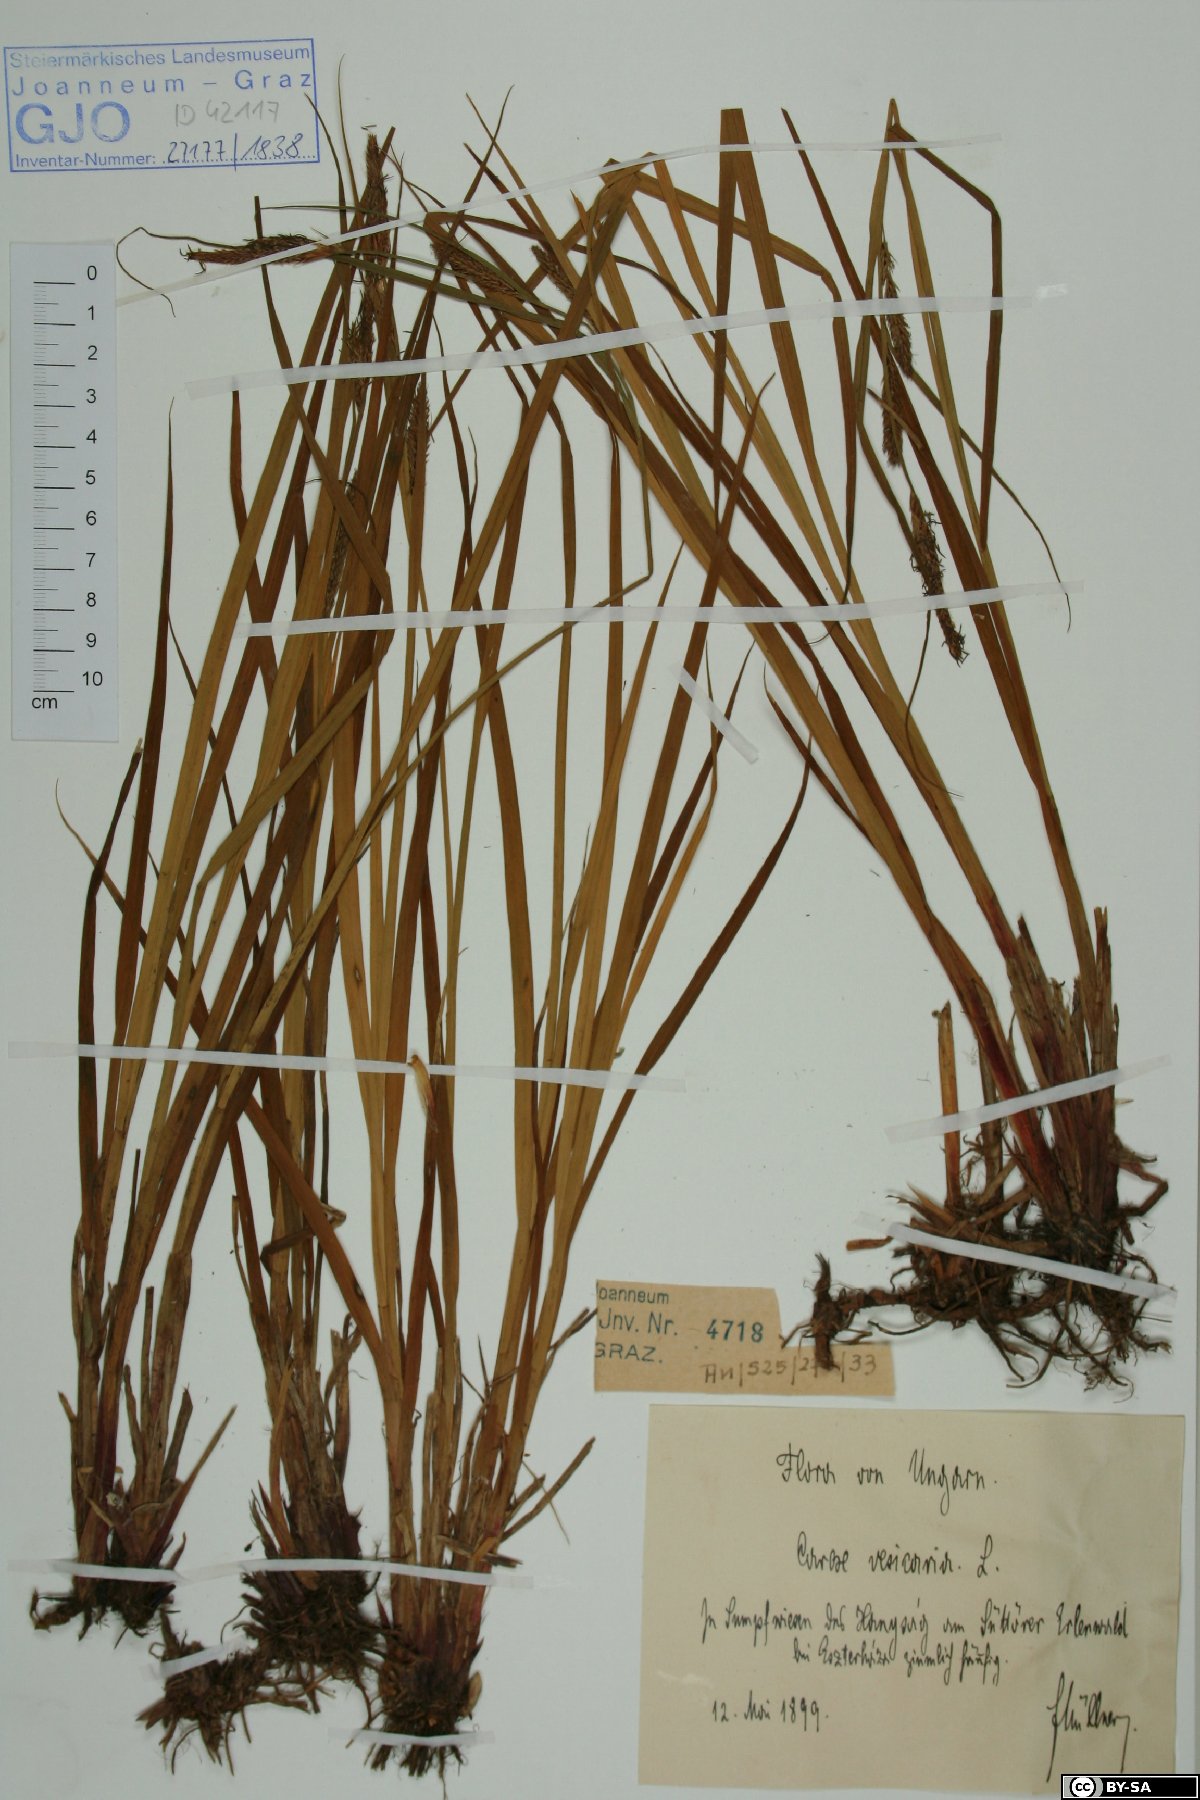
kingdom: Plantae
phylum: Tracheophyta
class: Liliopsida
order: Poales
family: Cyperaceae
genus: Carex
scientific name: Carex vesicaria
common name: Bladder-sedge
